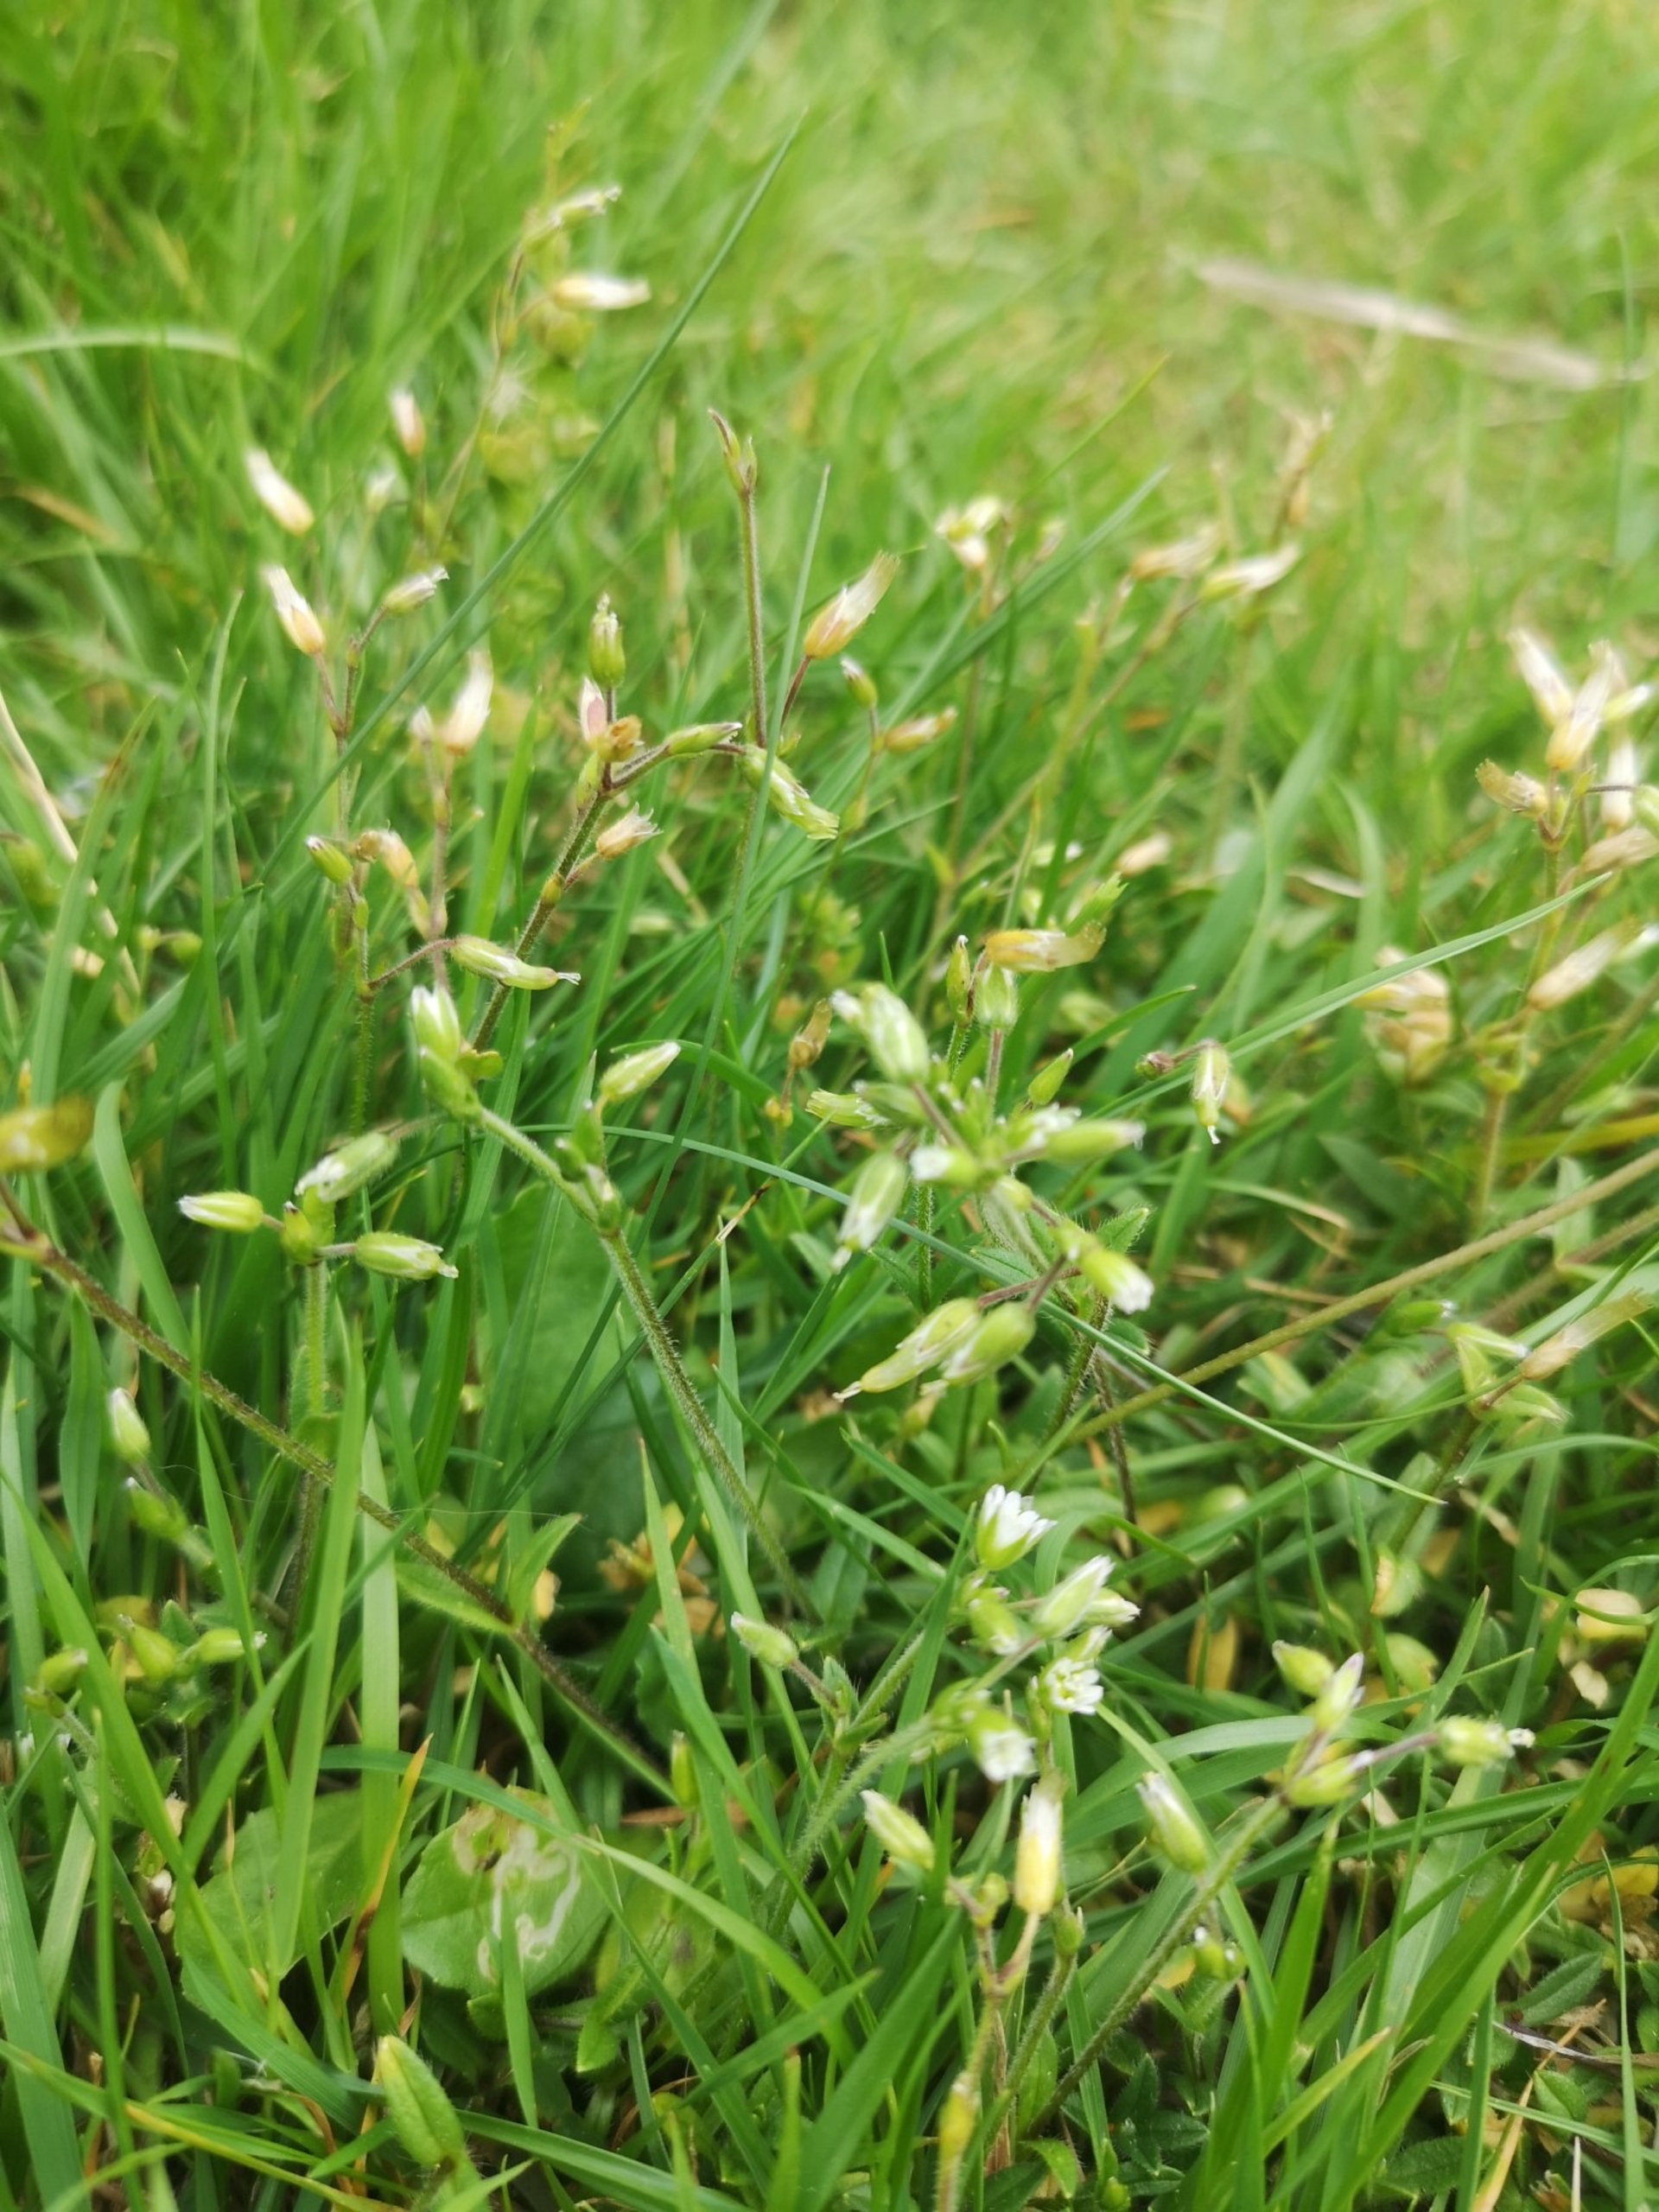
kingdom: Plantae
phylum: Tracheophyta
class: Magnoliopsida
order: Caryophyllales
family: Caryophyllaceae
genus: Cerastium
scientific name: Cerastium fontanum
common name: Almindelig hønsetarm
